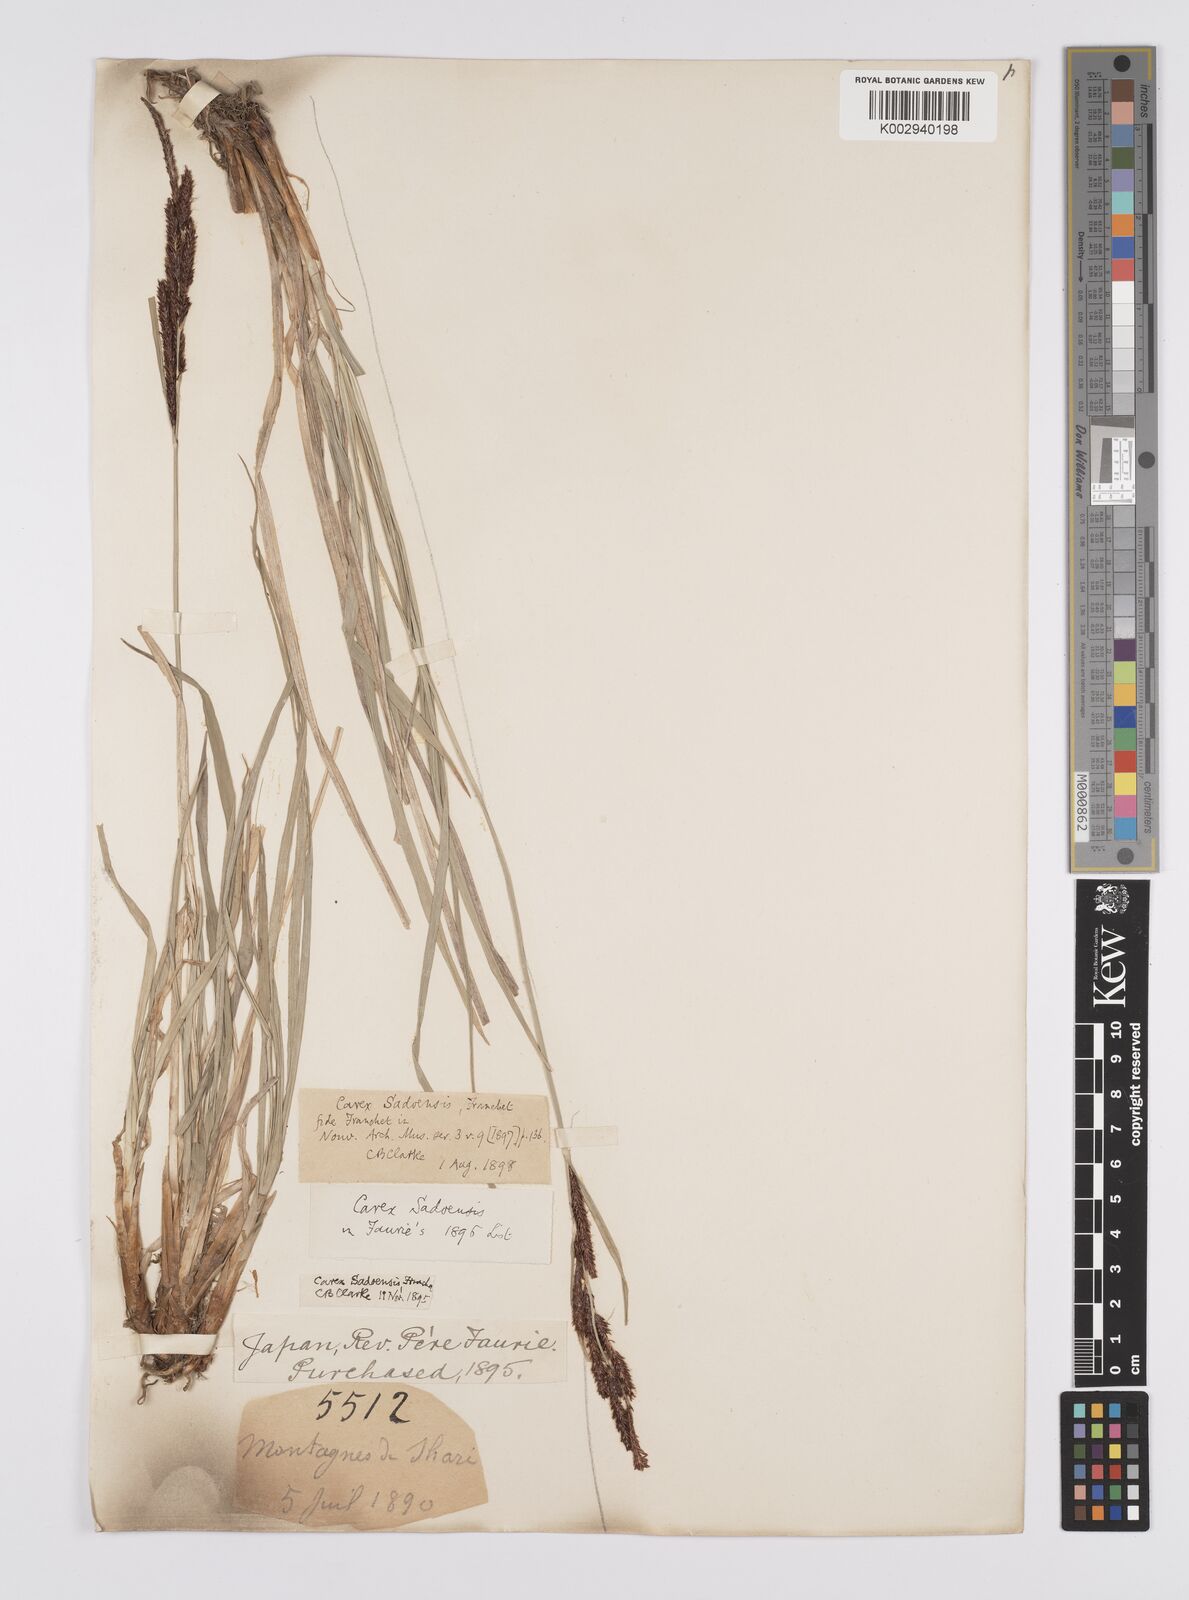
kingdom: Plantae
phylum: Tracheophyta
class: Liliopsida
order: Poales
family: Cyperaceae
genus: Carex
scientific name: Carex sadoensis
